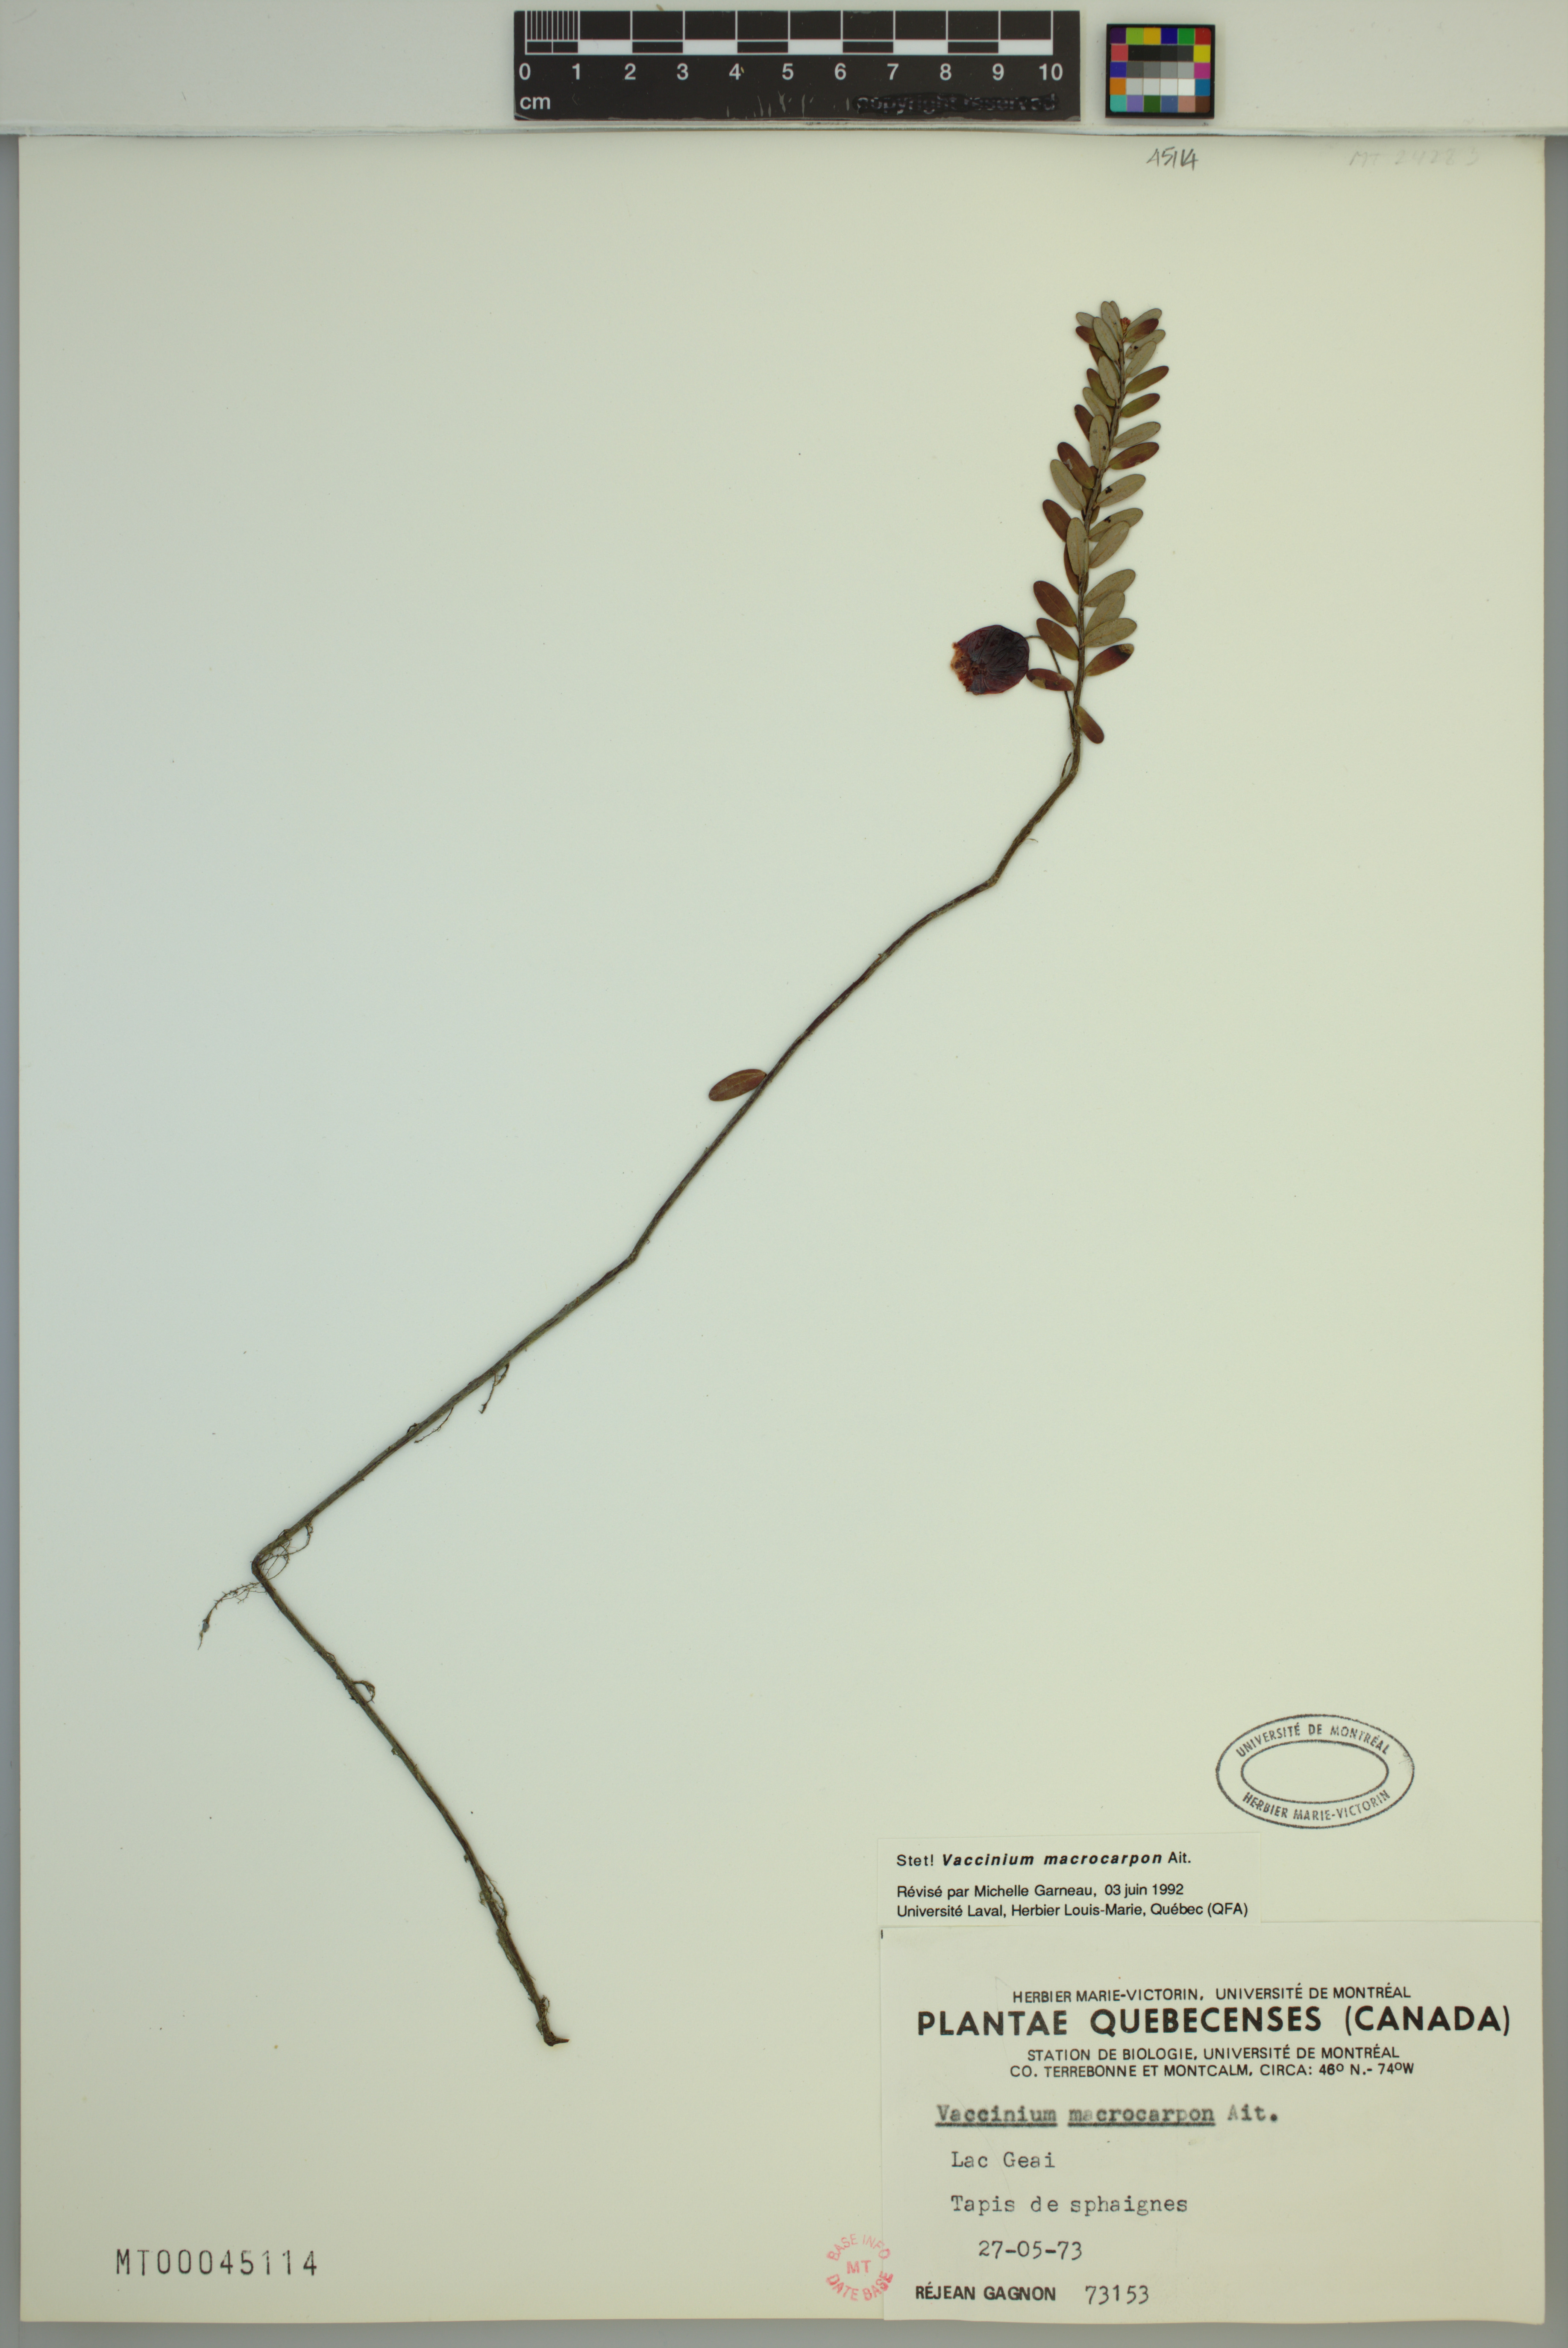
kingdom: Plantae
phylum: Tracheophyta
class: Magnoliopsida
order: Ericales
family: Ericaceae
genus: Vaccinium
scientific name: Vaccinium macrocarpon
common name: American cranberry
